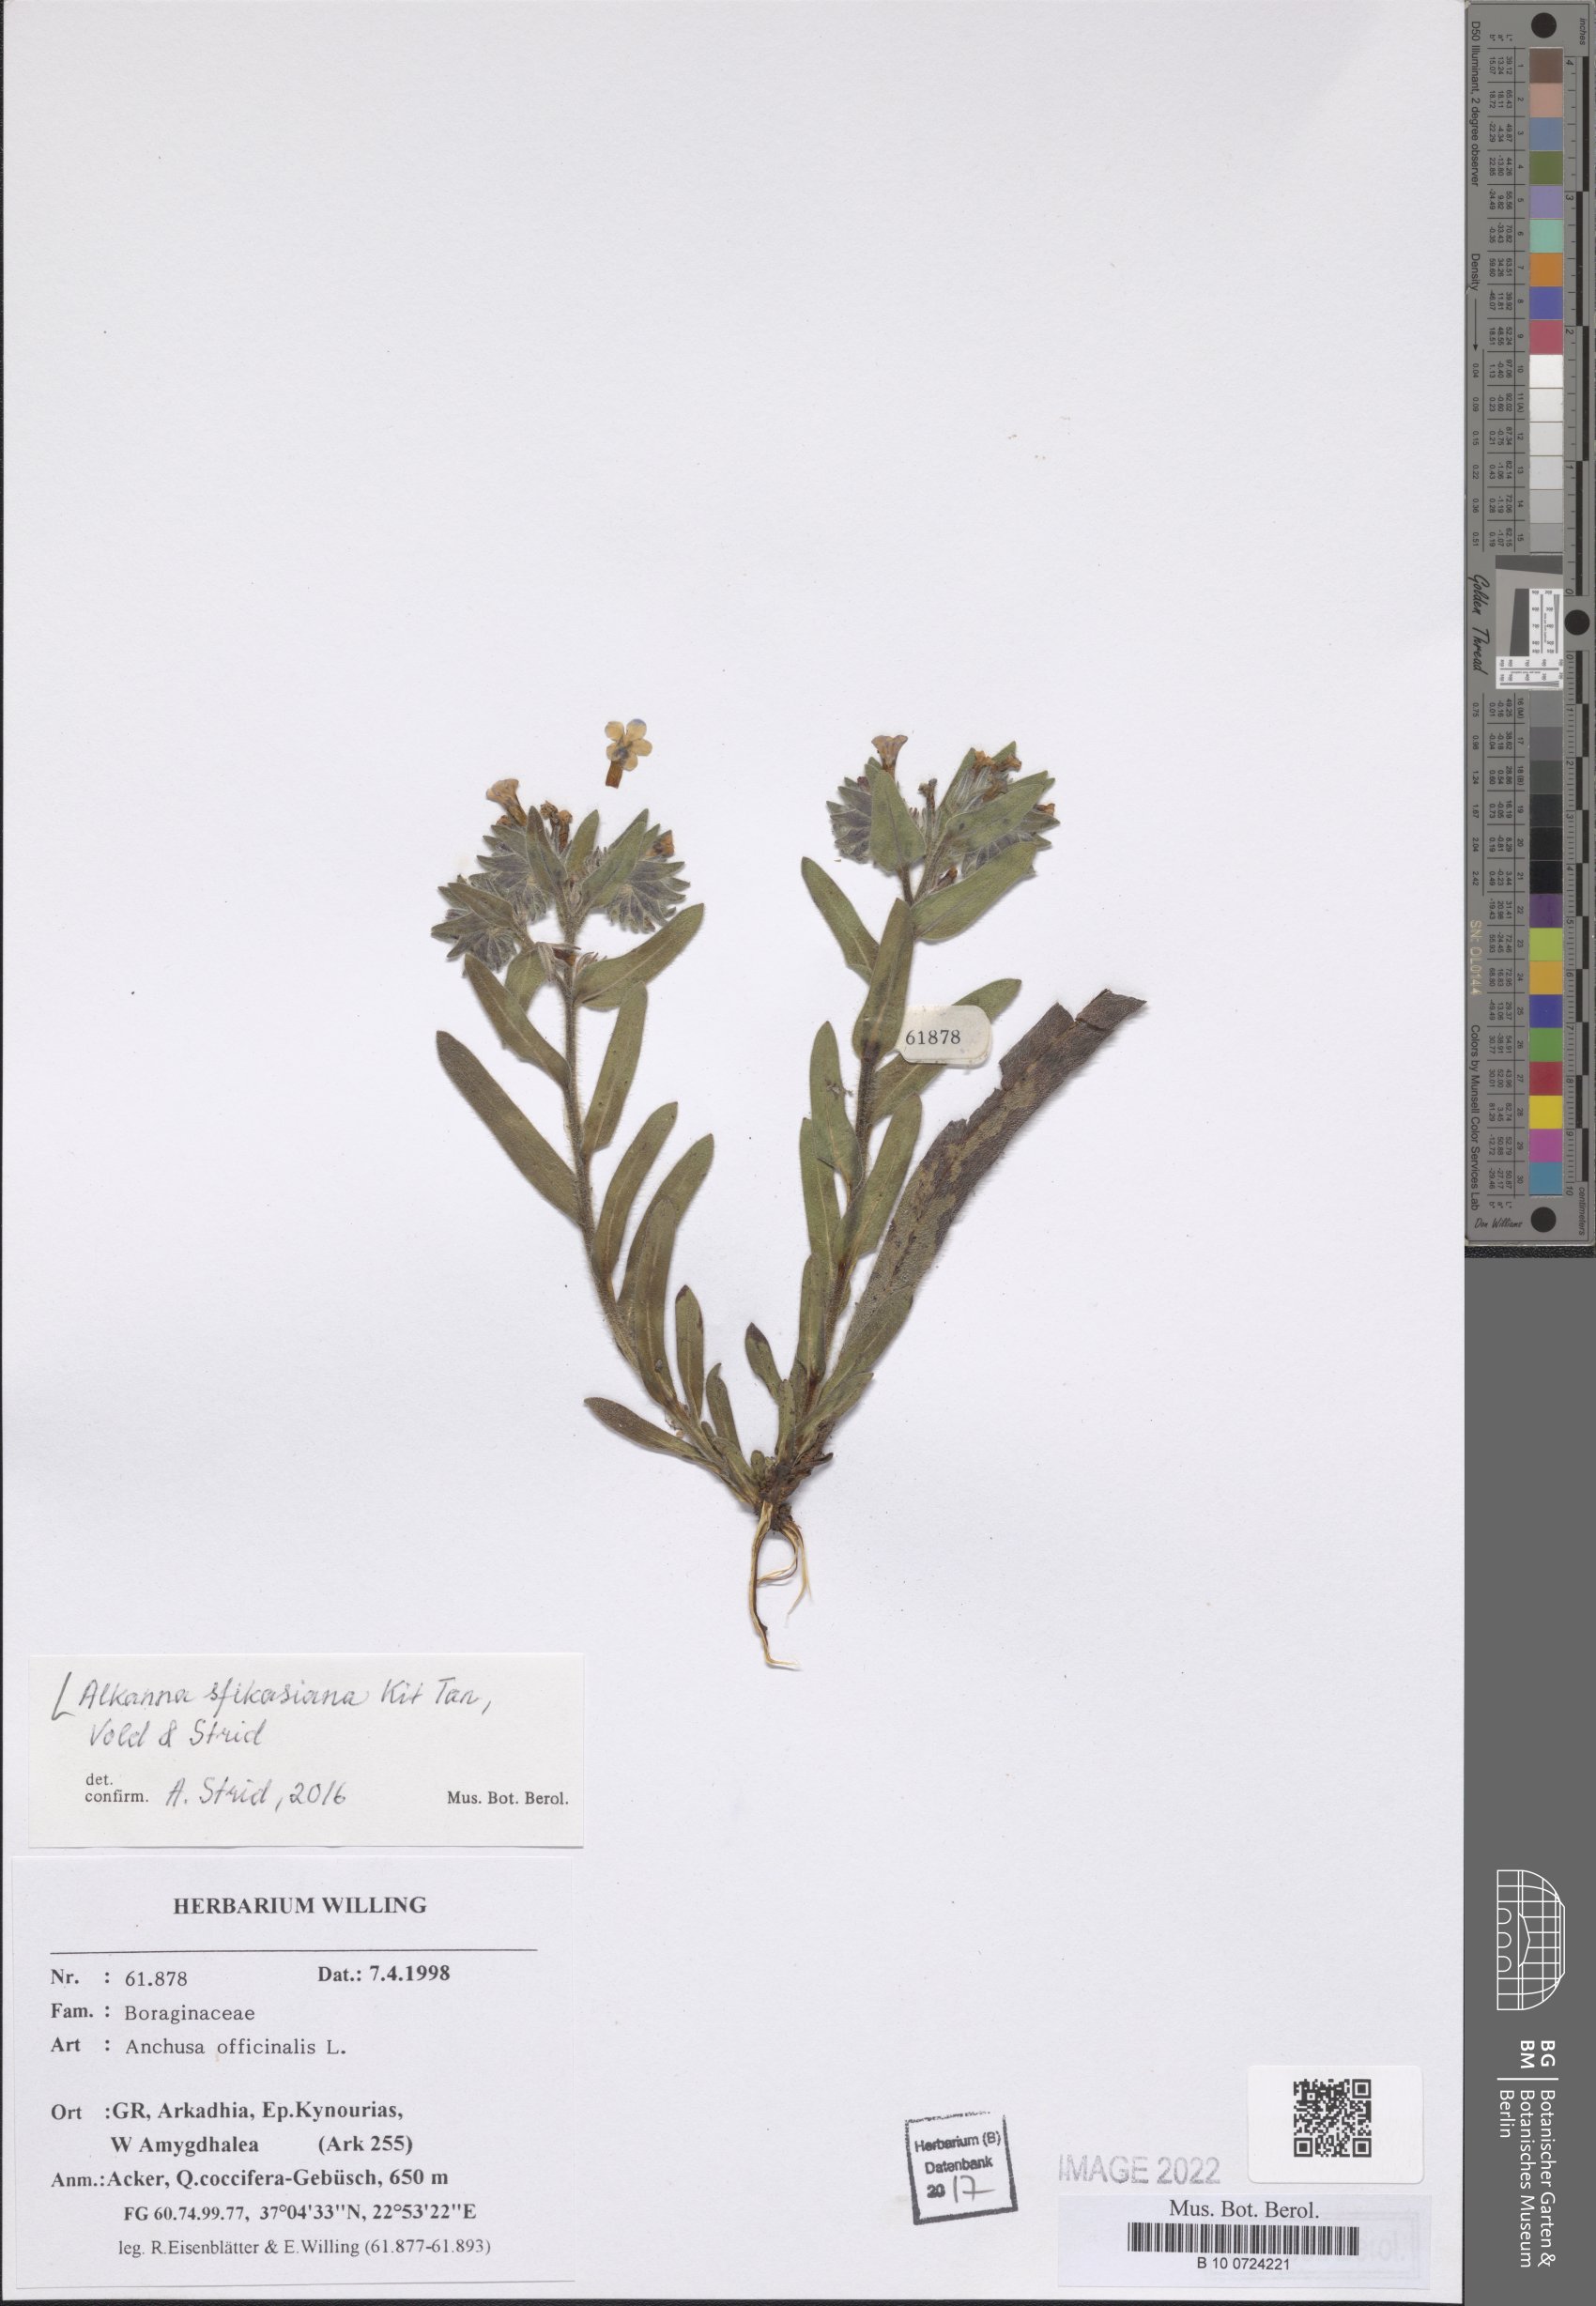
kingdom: Plantae
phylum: Tracheophyta
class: Magnoliopsida
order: Boraginales
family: Boraginaceae
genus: Alkanna
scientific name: Alkanna sfikasiana
